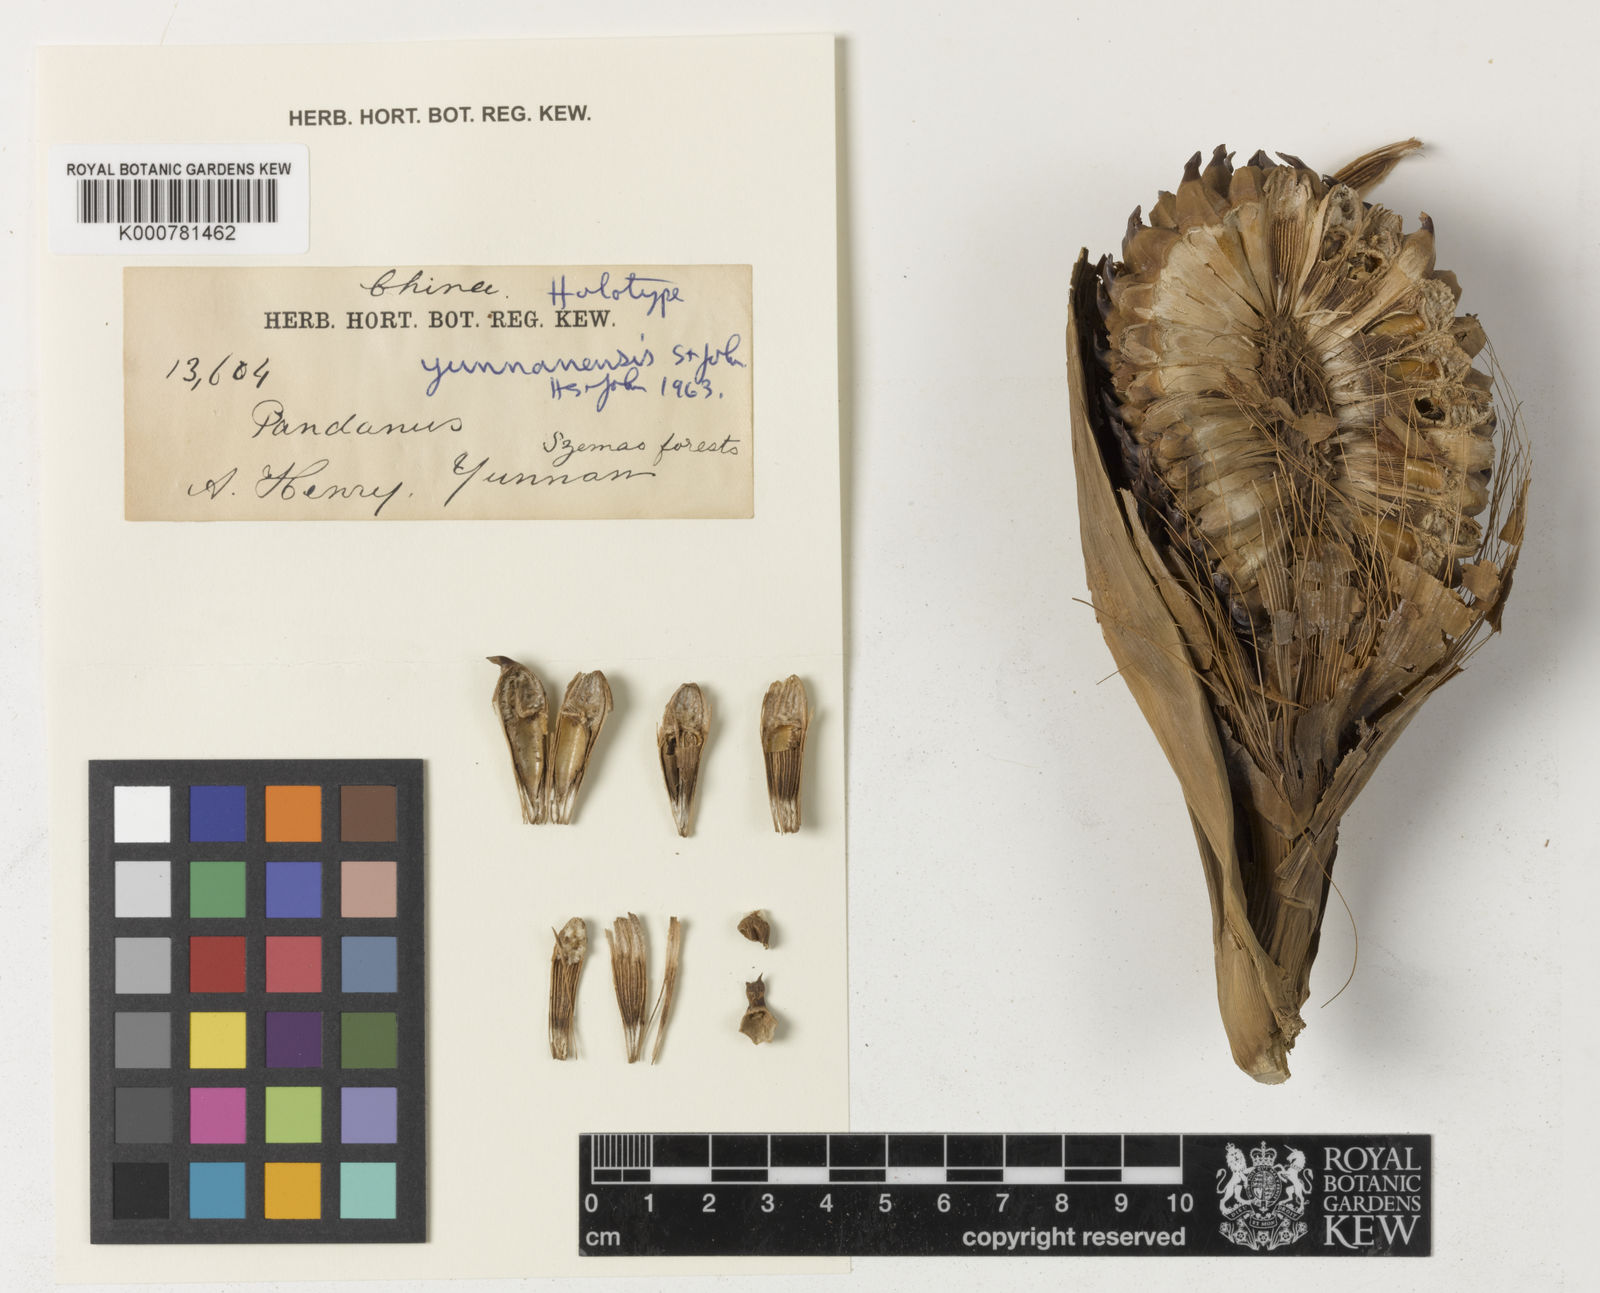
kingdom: Plantae
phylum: Tracheophyta
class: Liliopsida
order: Pandanales
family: Pandanaceae
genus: Pandanus
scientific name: Pandanus
